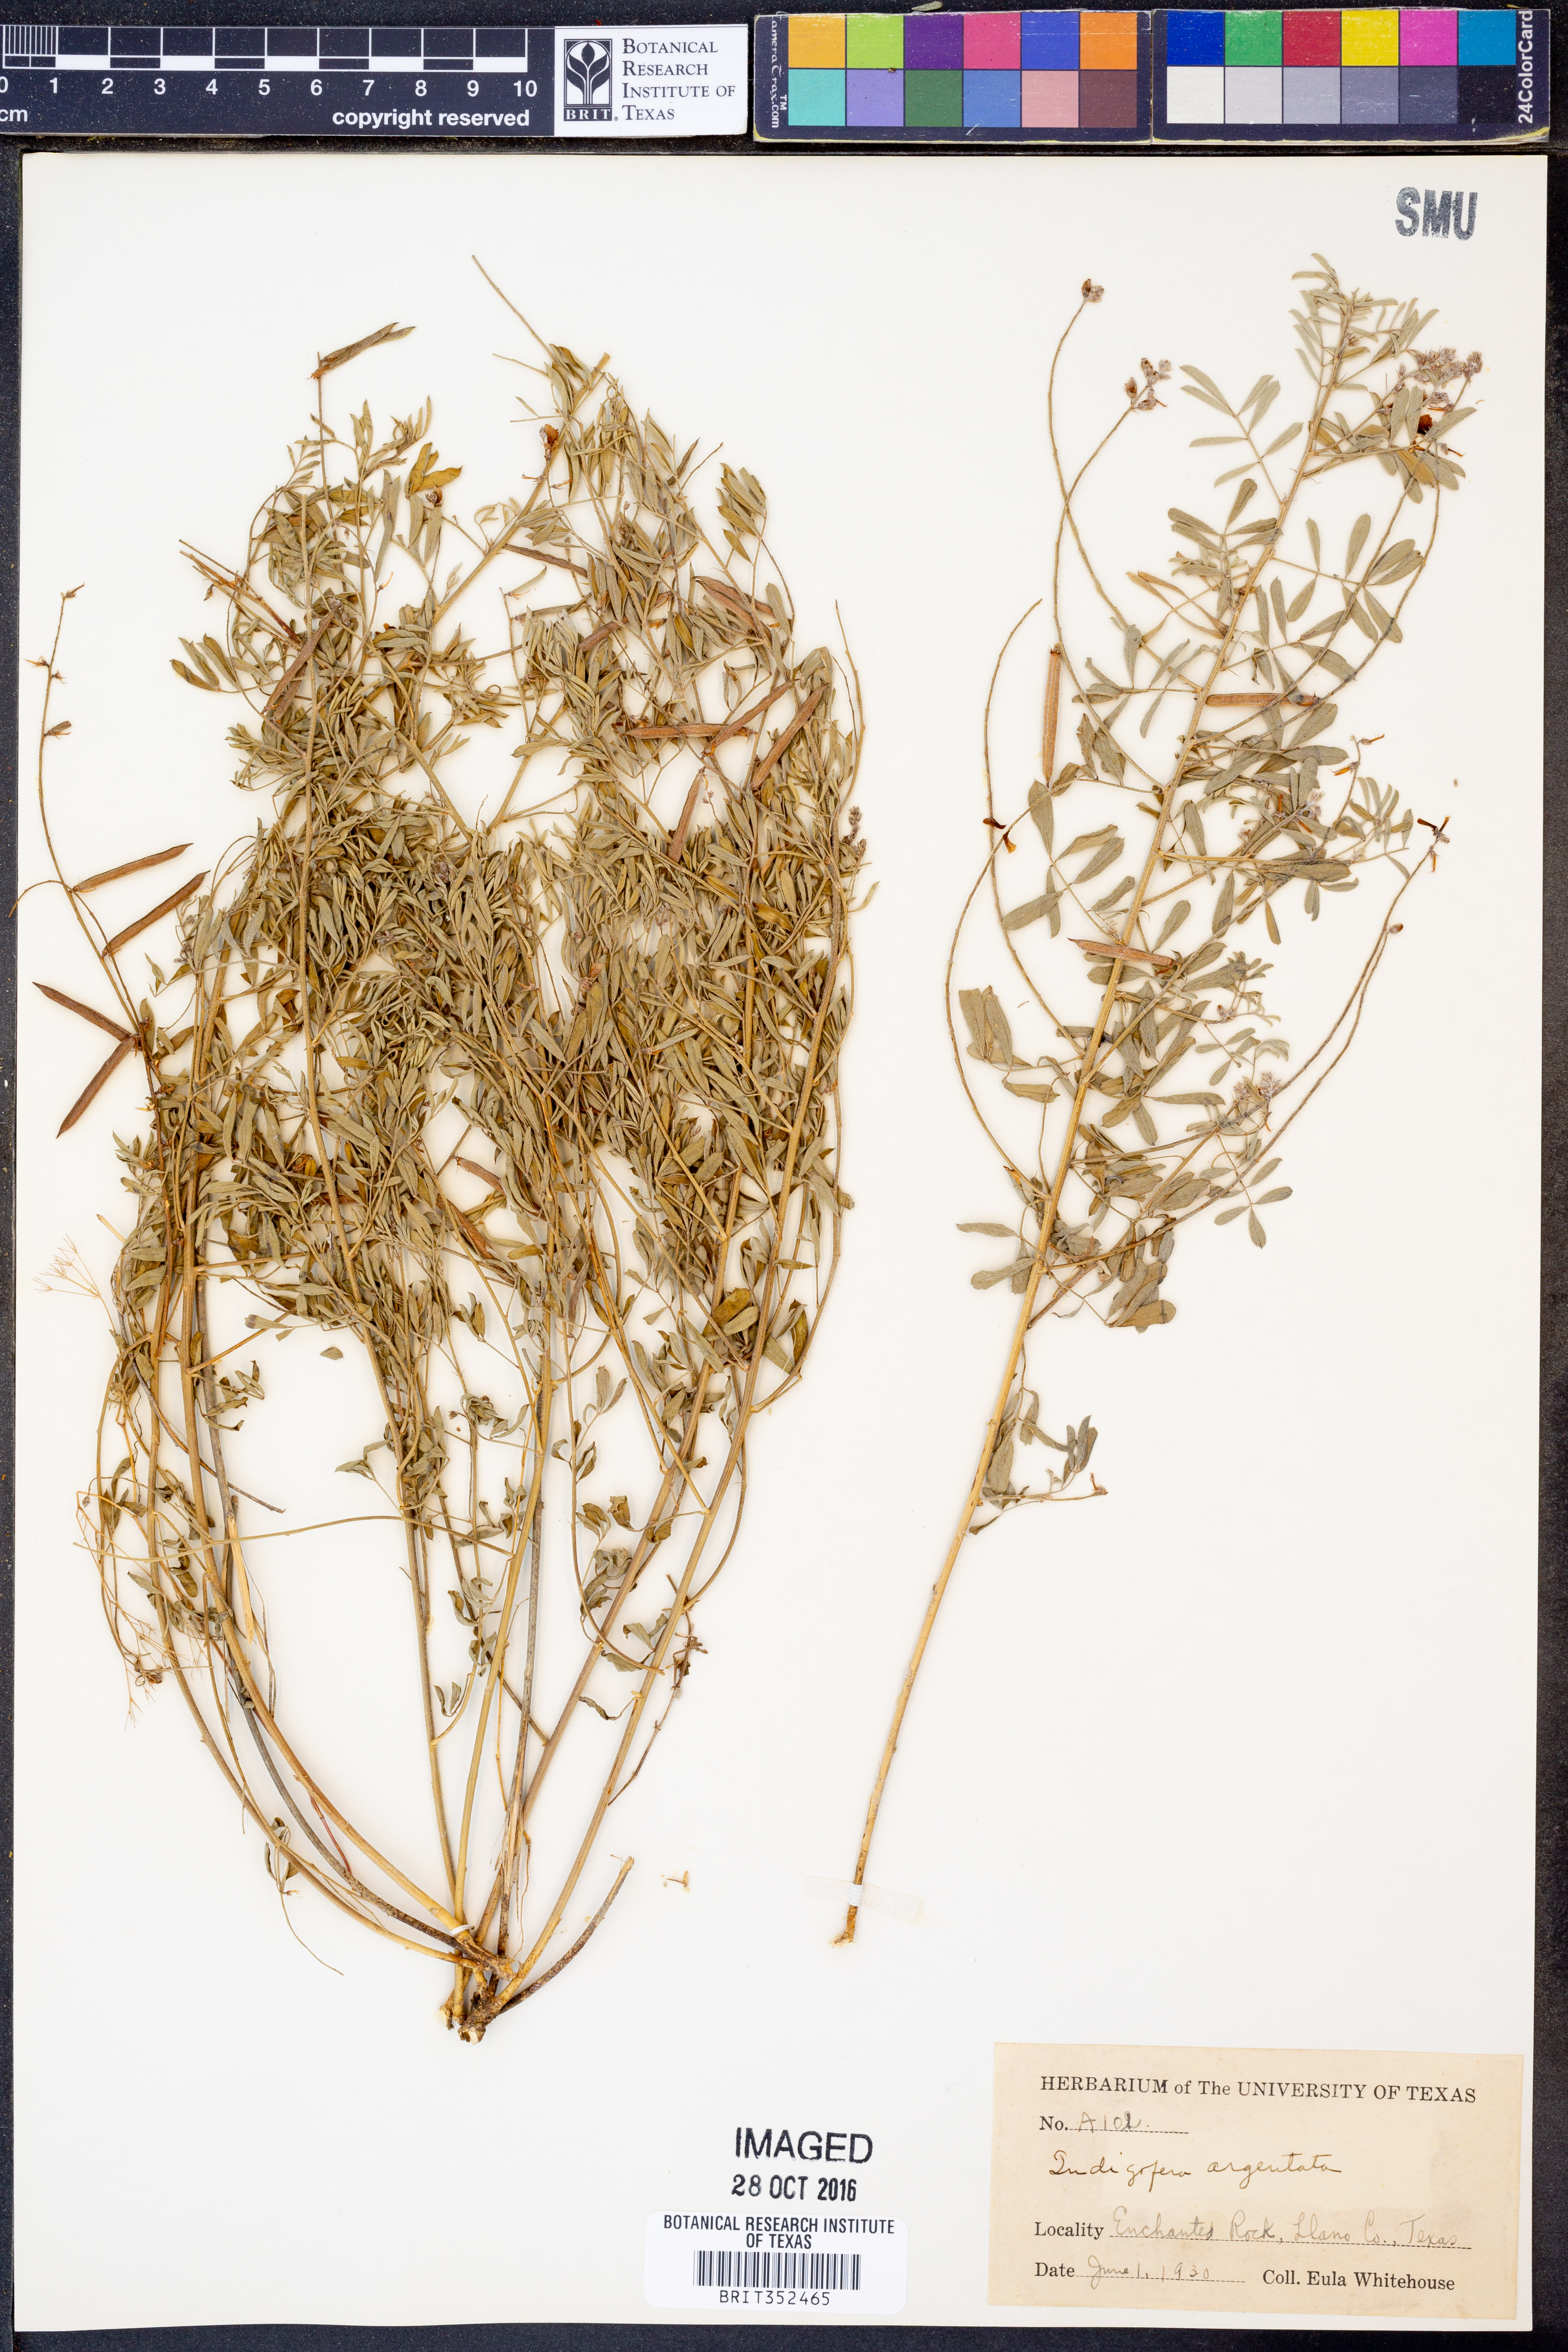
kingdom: Plantae
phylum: Tracheophyta
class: Magnoliopsida
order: Fabales
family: Fabaceae
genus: Indigofera
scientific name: Indigofera
